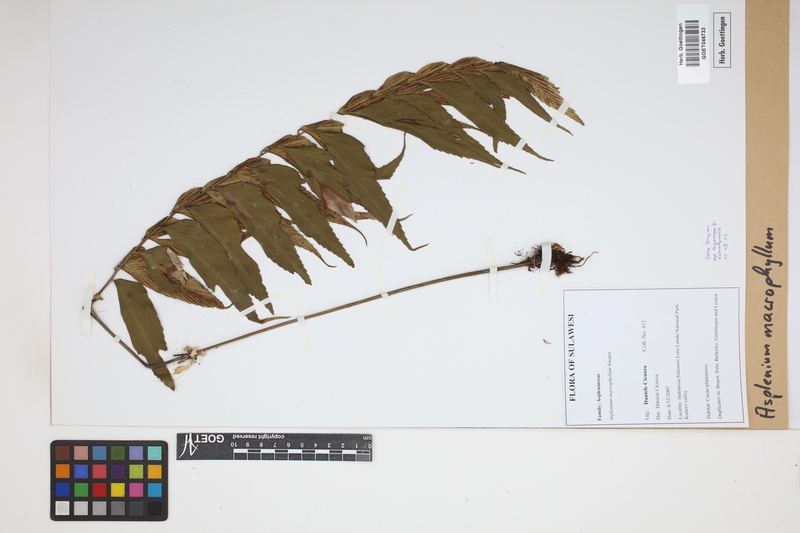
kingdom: Plantae
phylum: Tracheophyta
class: Polypodiopsida
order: Polypodiales
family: Aspleniaceae
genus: Asplenium
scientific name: Asplenium macrophyllum
